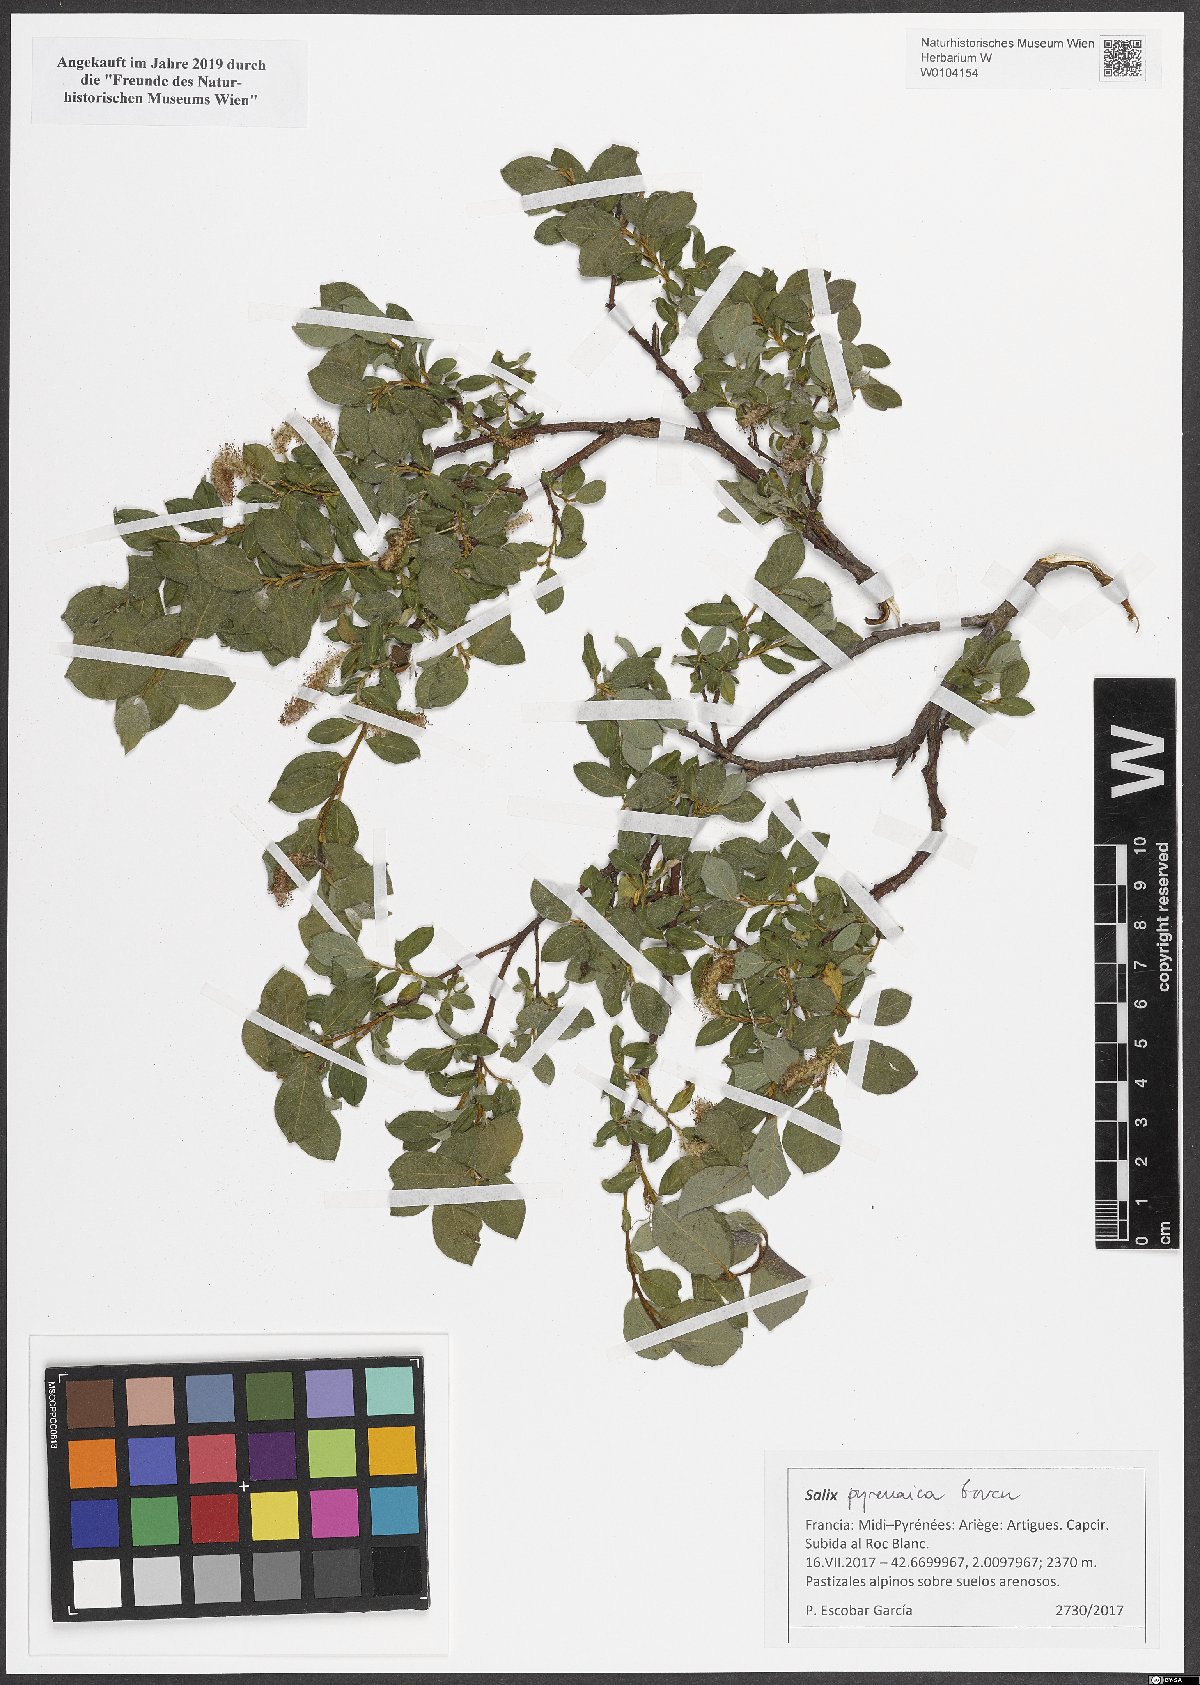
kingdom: Plantae
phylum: Tracheophyta
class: Magnoliopsida
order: Malpighiales
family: Salicaceae
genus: Salix
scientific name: Salix pyrenaica
